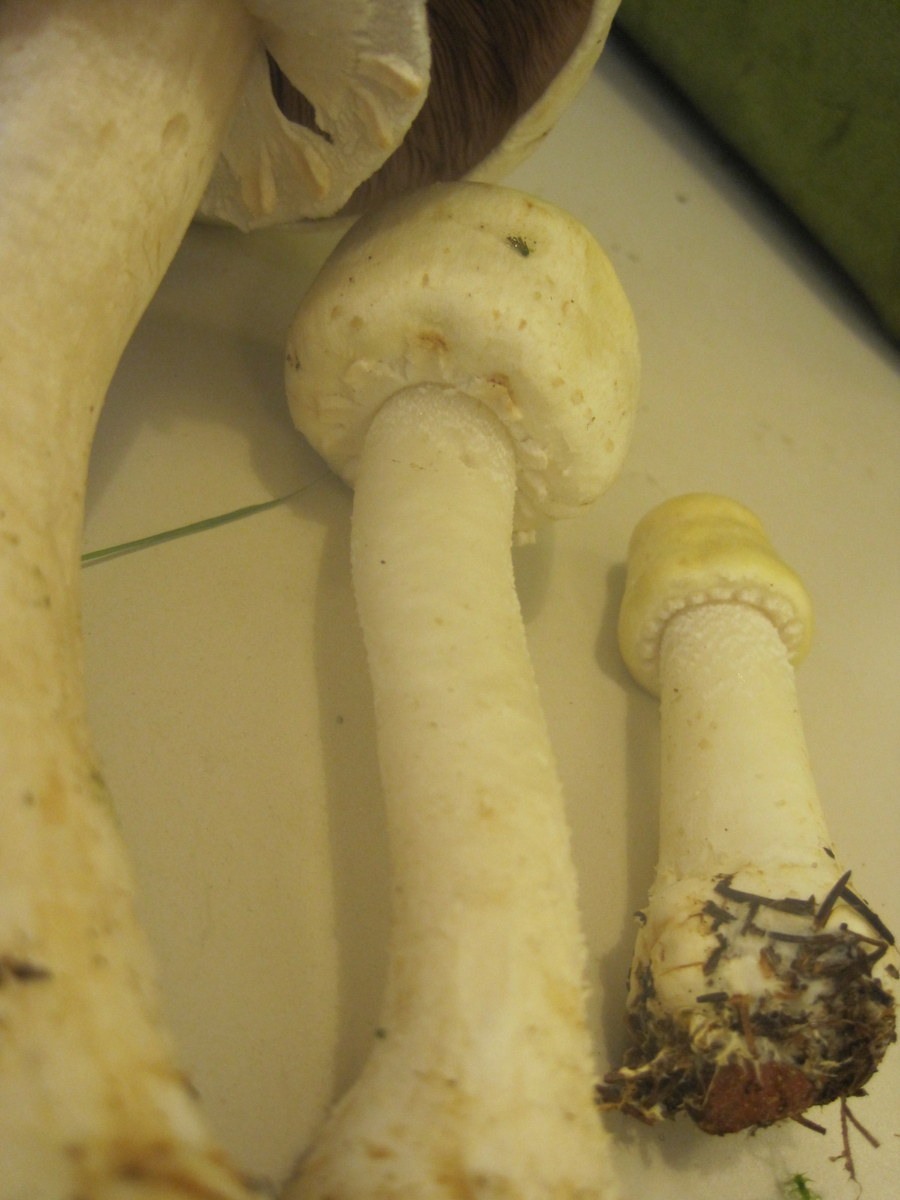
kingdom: Fungi
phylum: Basidiomycota
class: Agaricomycetes
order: Agaricales
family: Agaricaceae
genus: Agaricus
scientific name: Agaricus sylvicola
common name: skiveknoldet champignon
